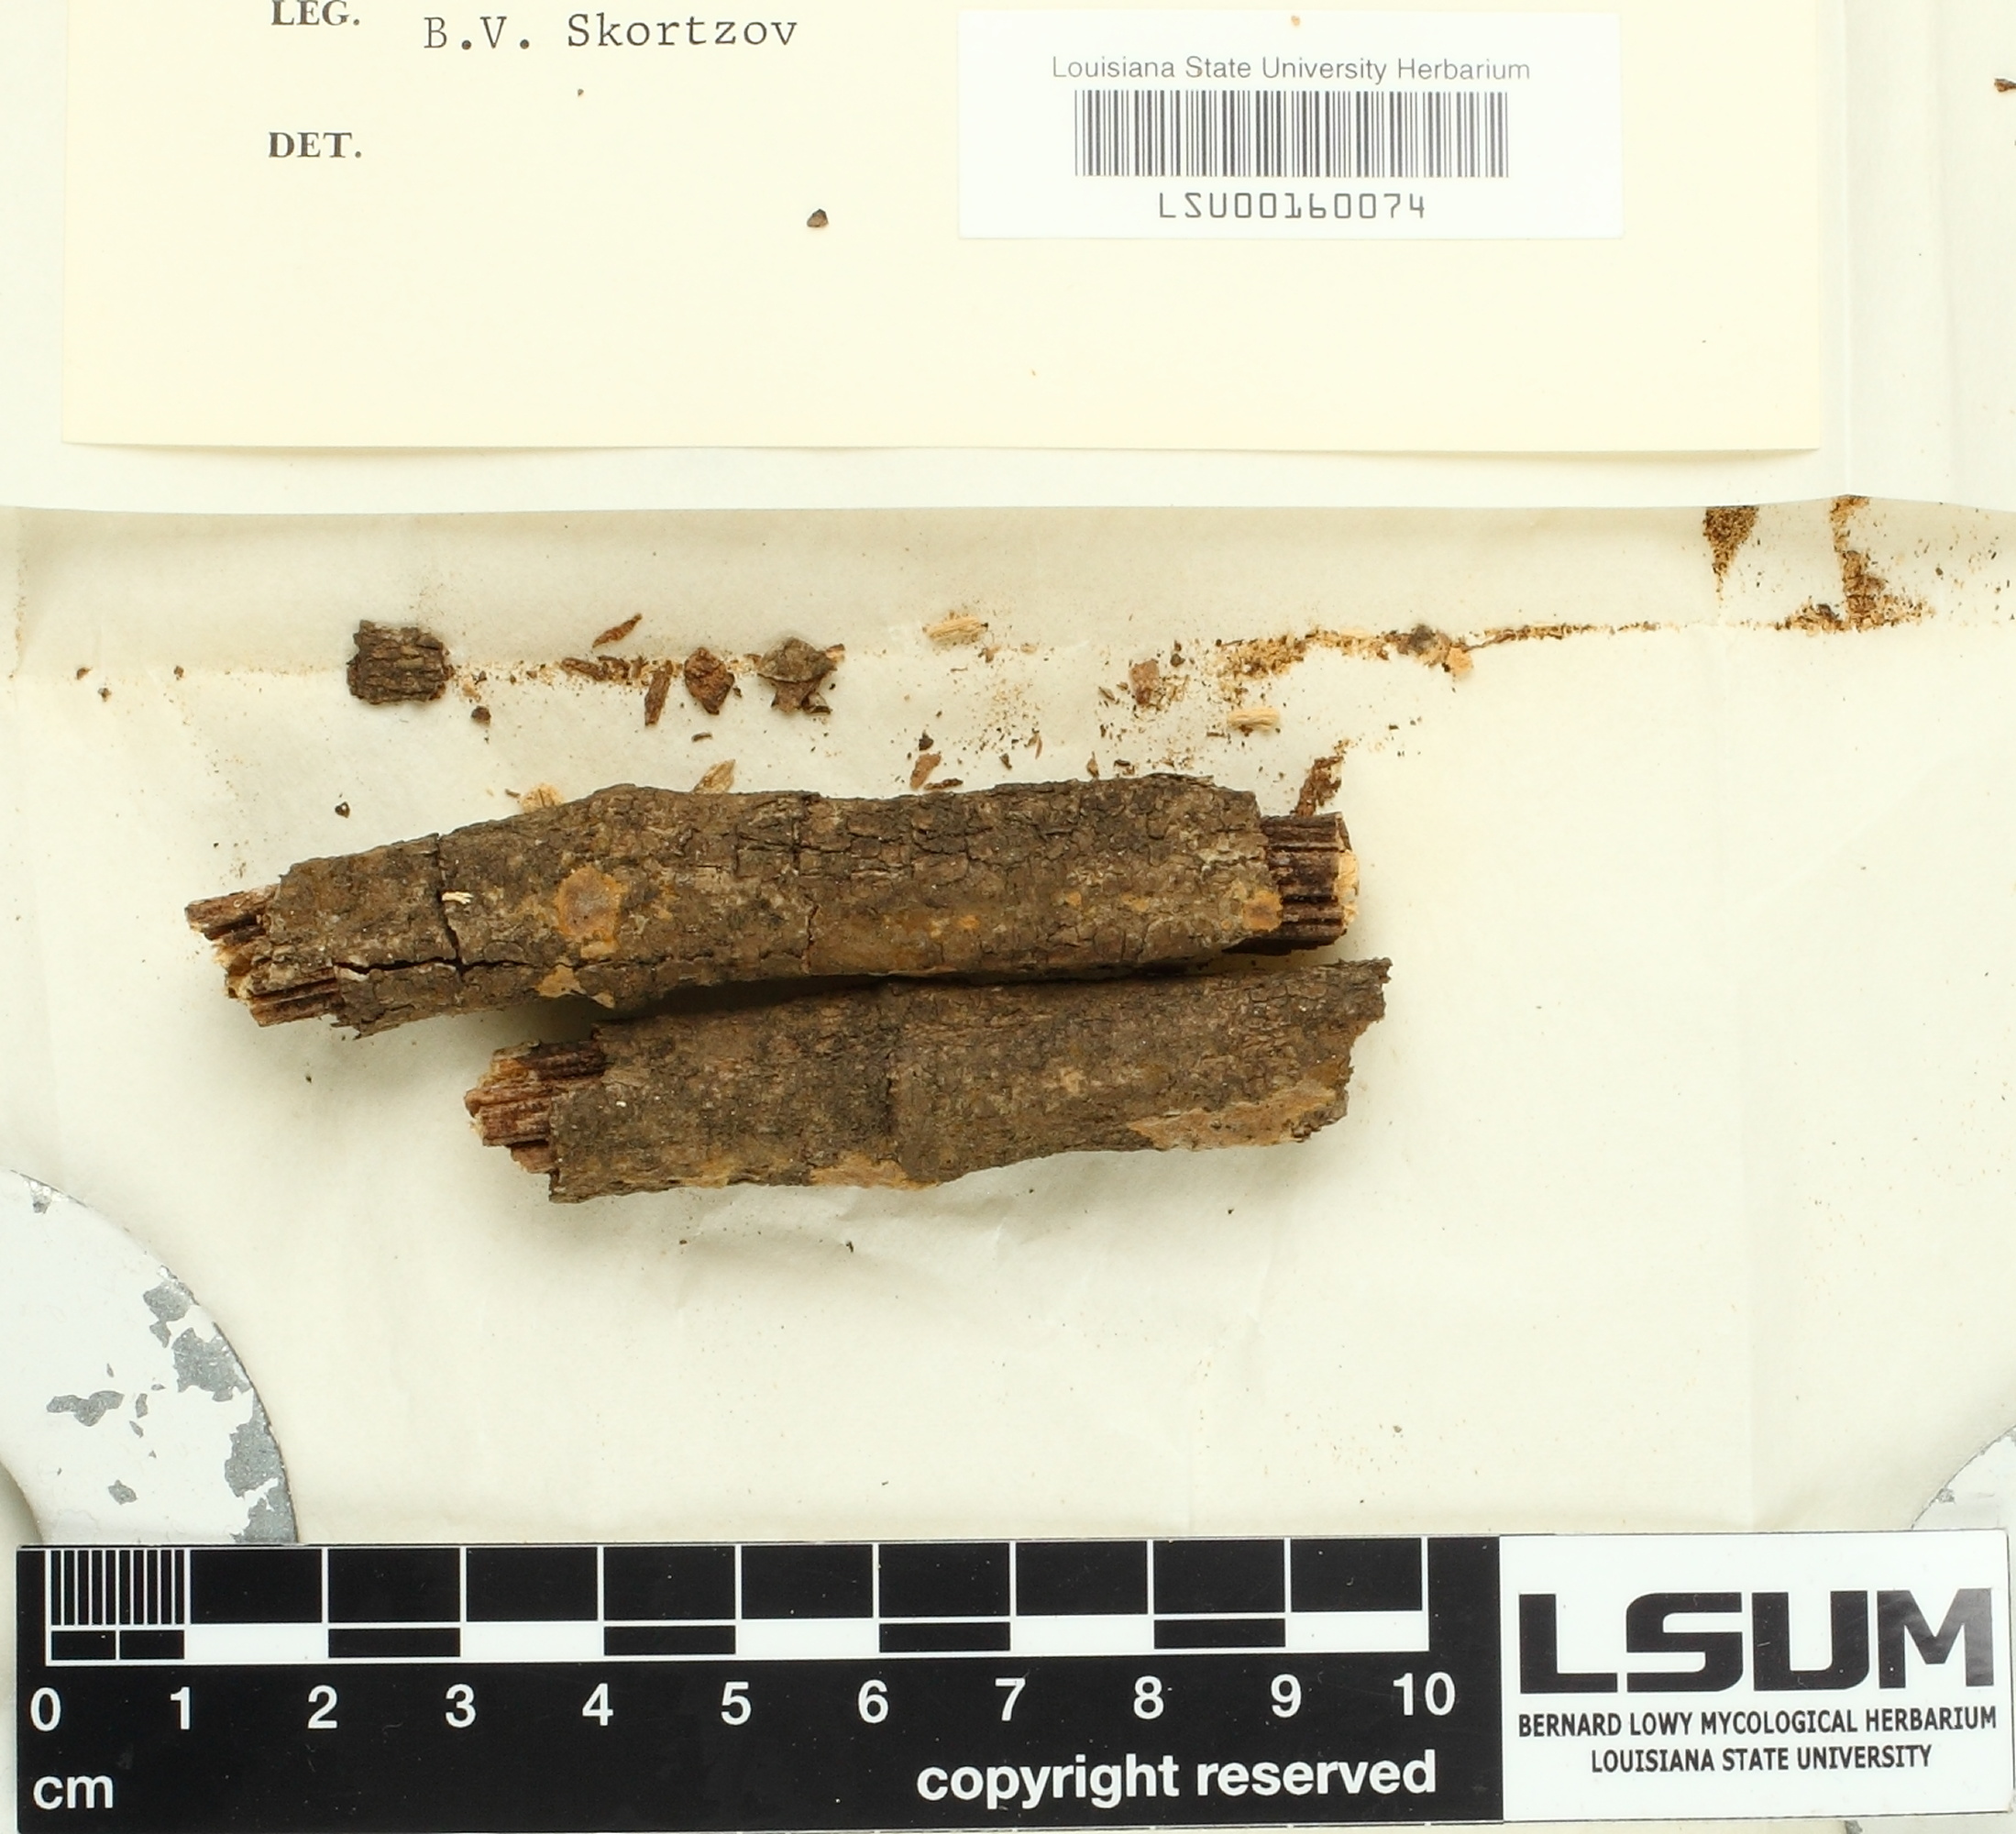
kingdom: Fungi
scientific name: Fungi
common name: Fungi
